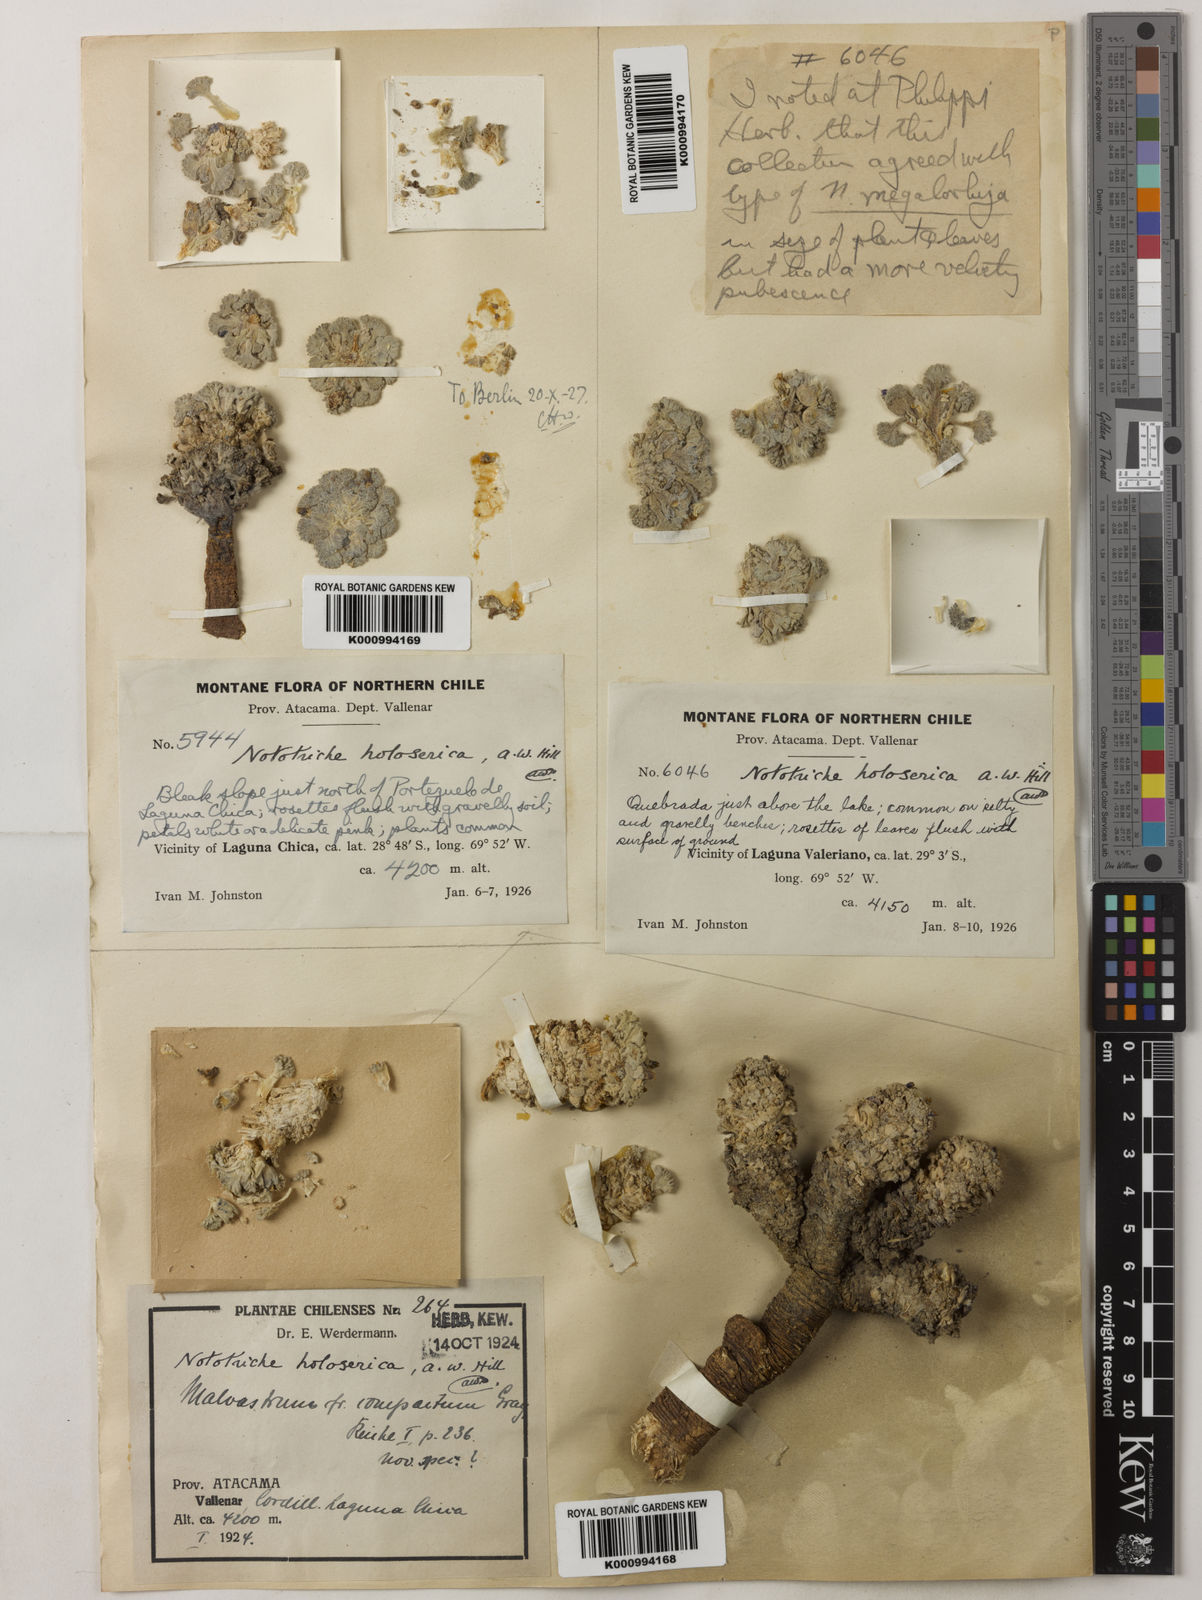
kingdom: Plantae
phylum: Tracheophyta
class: Magnoliopsida
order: Malvales
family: Malvaceae
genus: Nototriche
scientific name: Nototriche compacta
